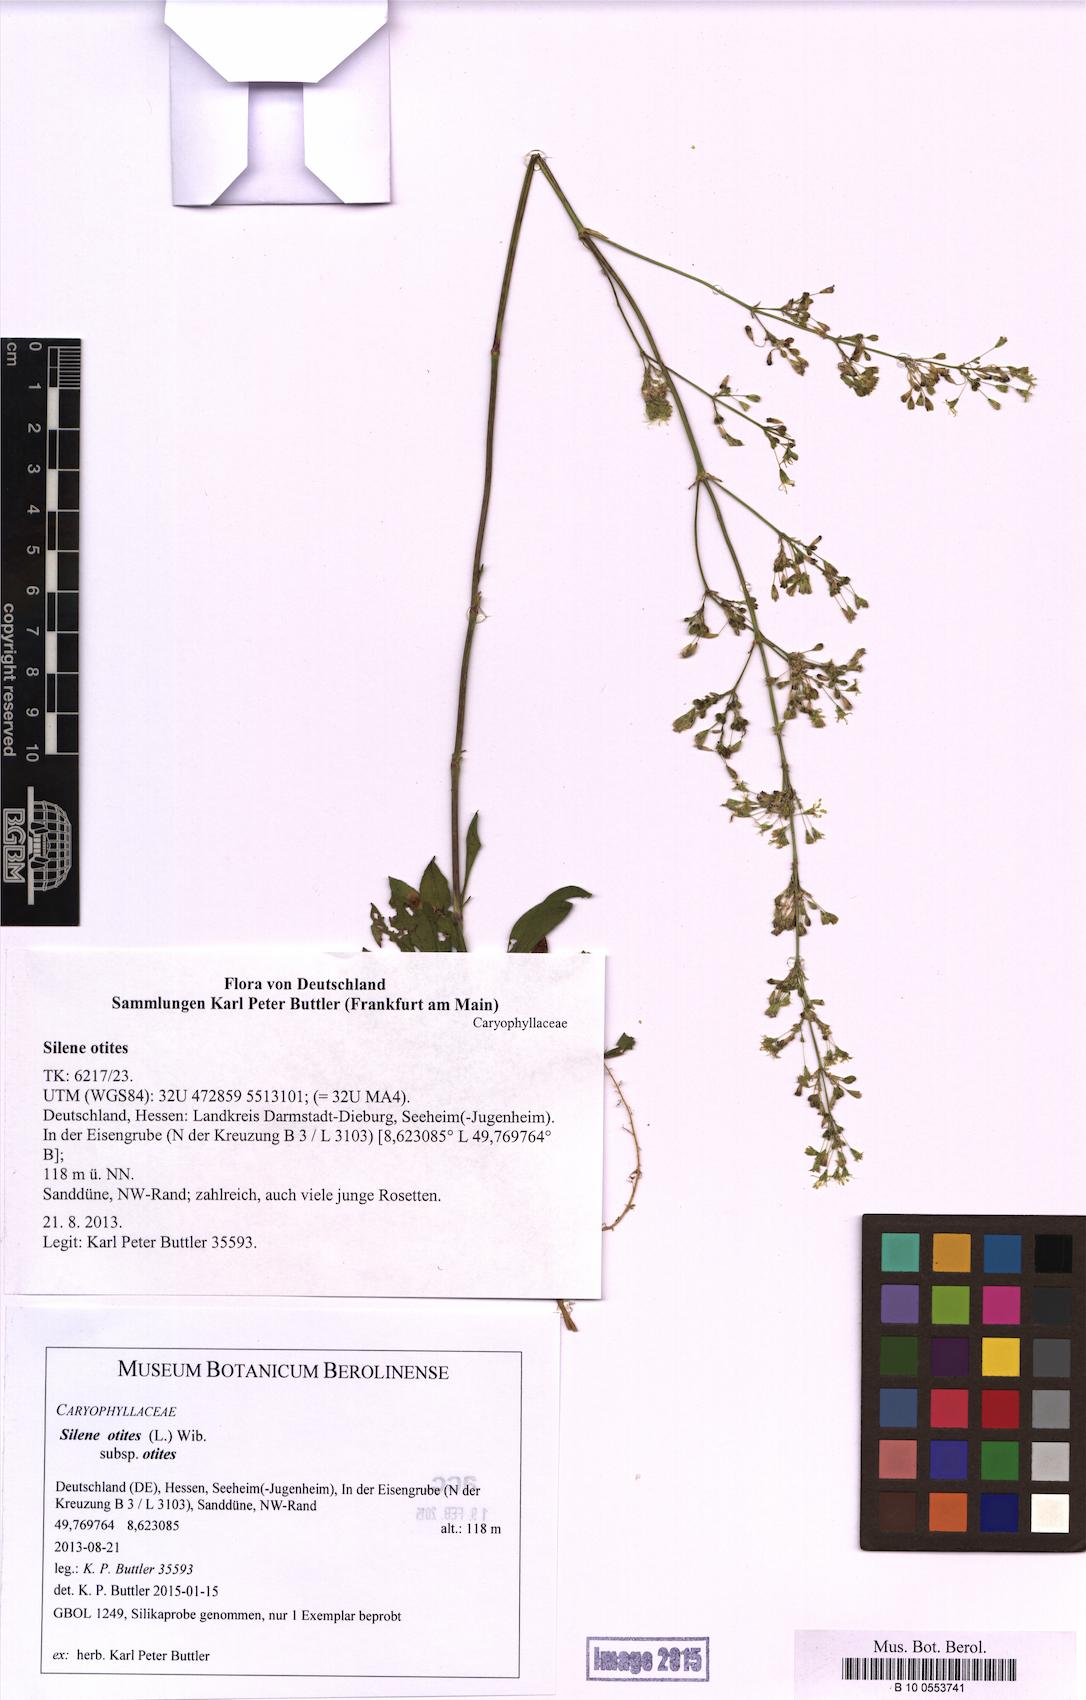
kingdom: Plantae
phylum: Tracheophyta
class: Magnoliopsida
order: Caryophyllales
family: Caryophyllaceae
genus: Silene
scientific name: Silene otites
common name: Spanish catchfly
